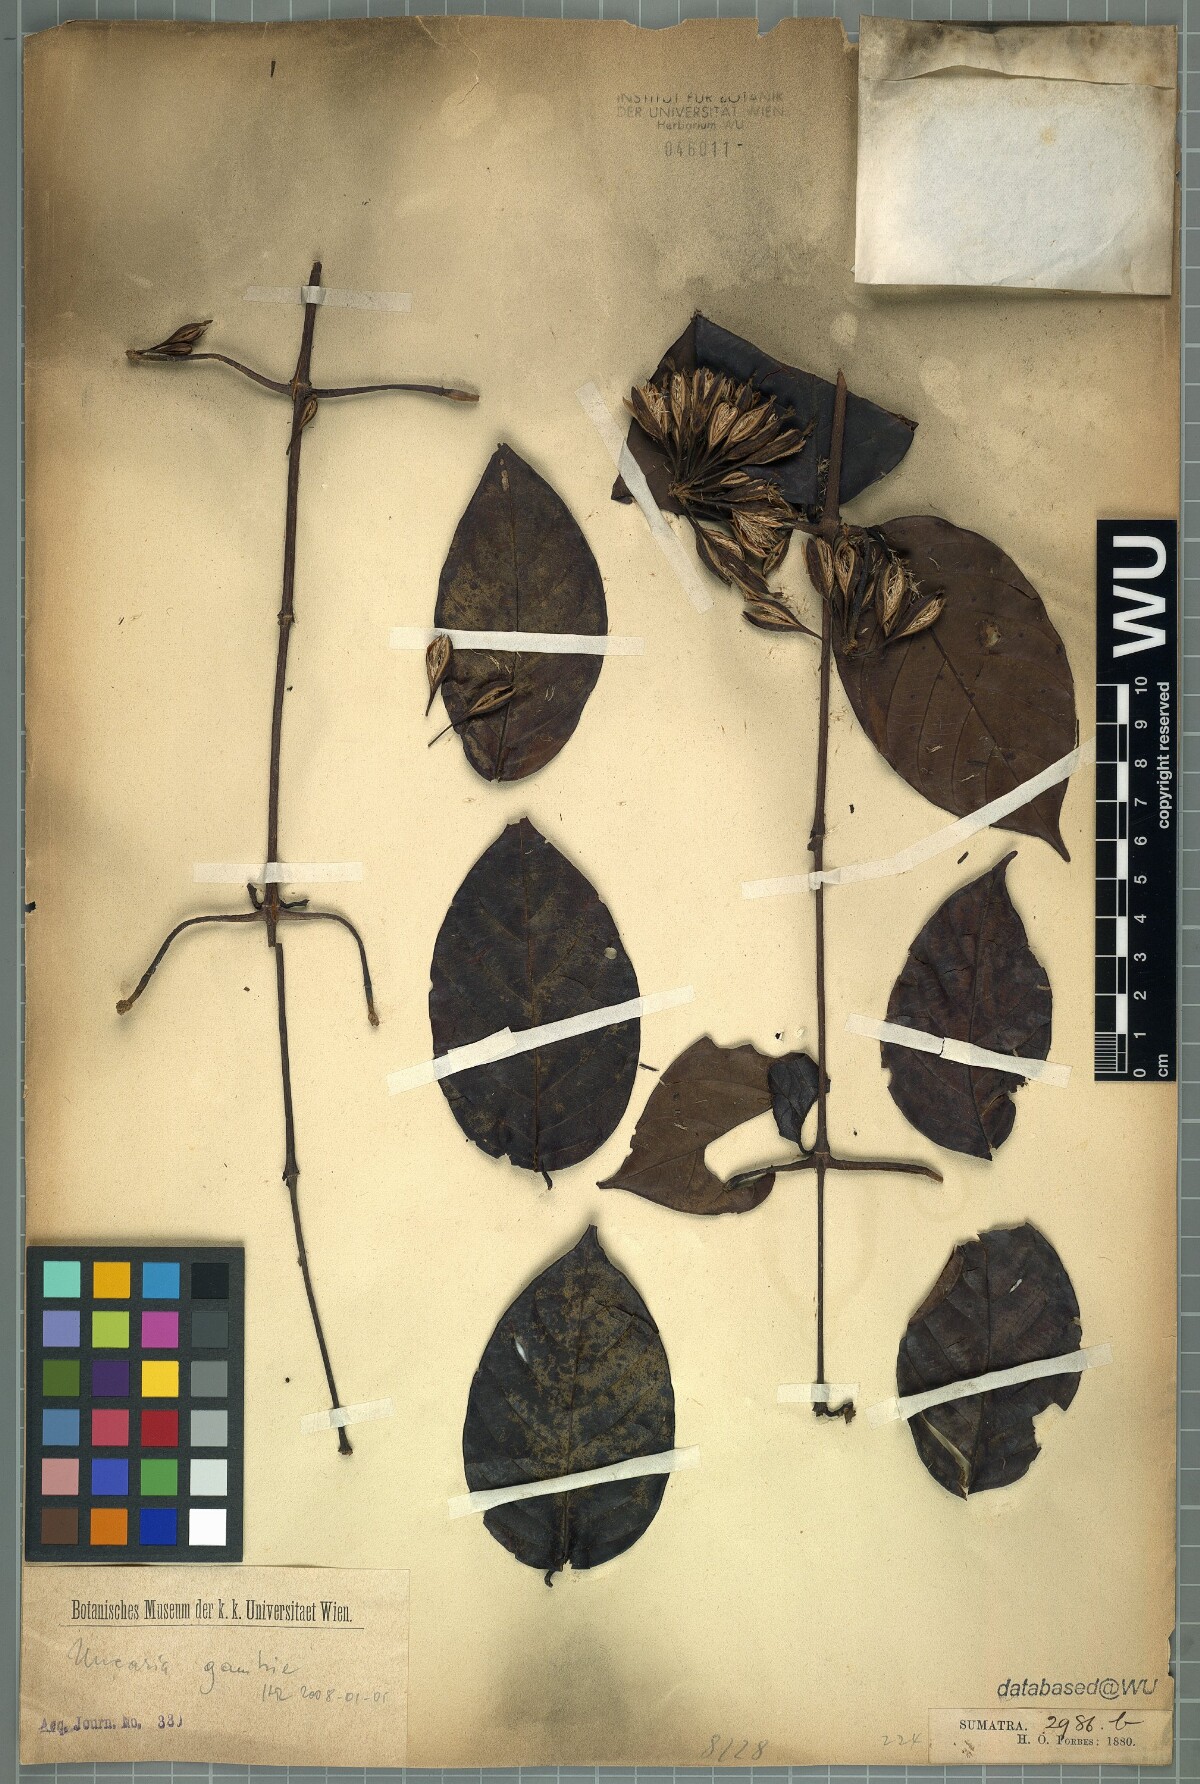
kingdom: Plantae
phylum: Tracheophyta
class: Magnoliopsida
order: Gentianales
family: Rubiaceae
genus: Uncaria
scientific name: Uncaria gambir
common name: Pale catechu
